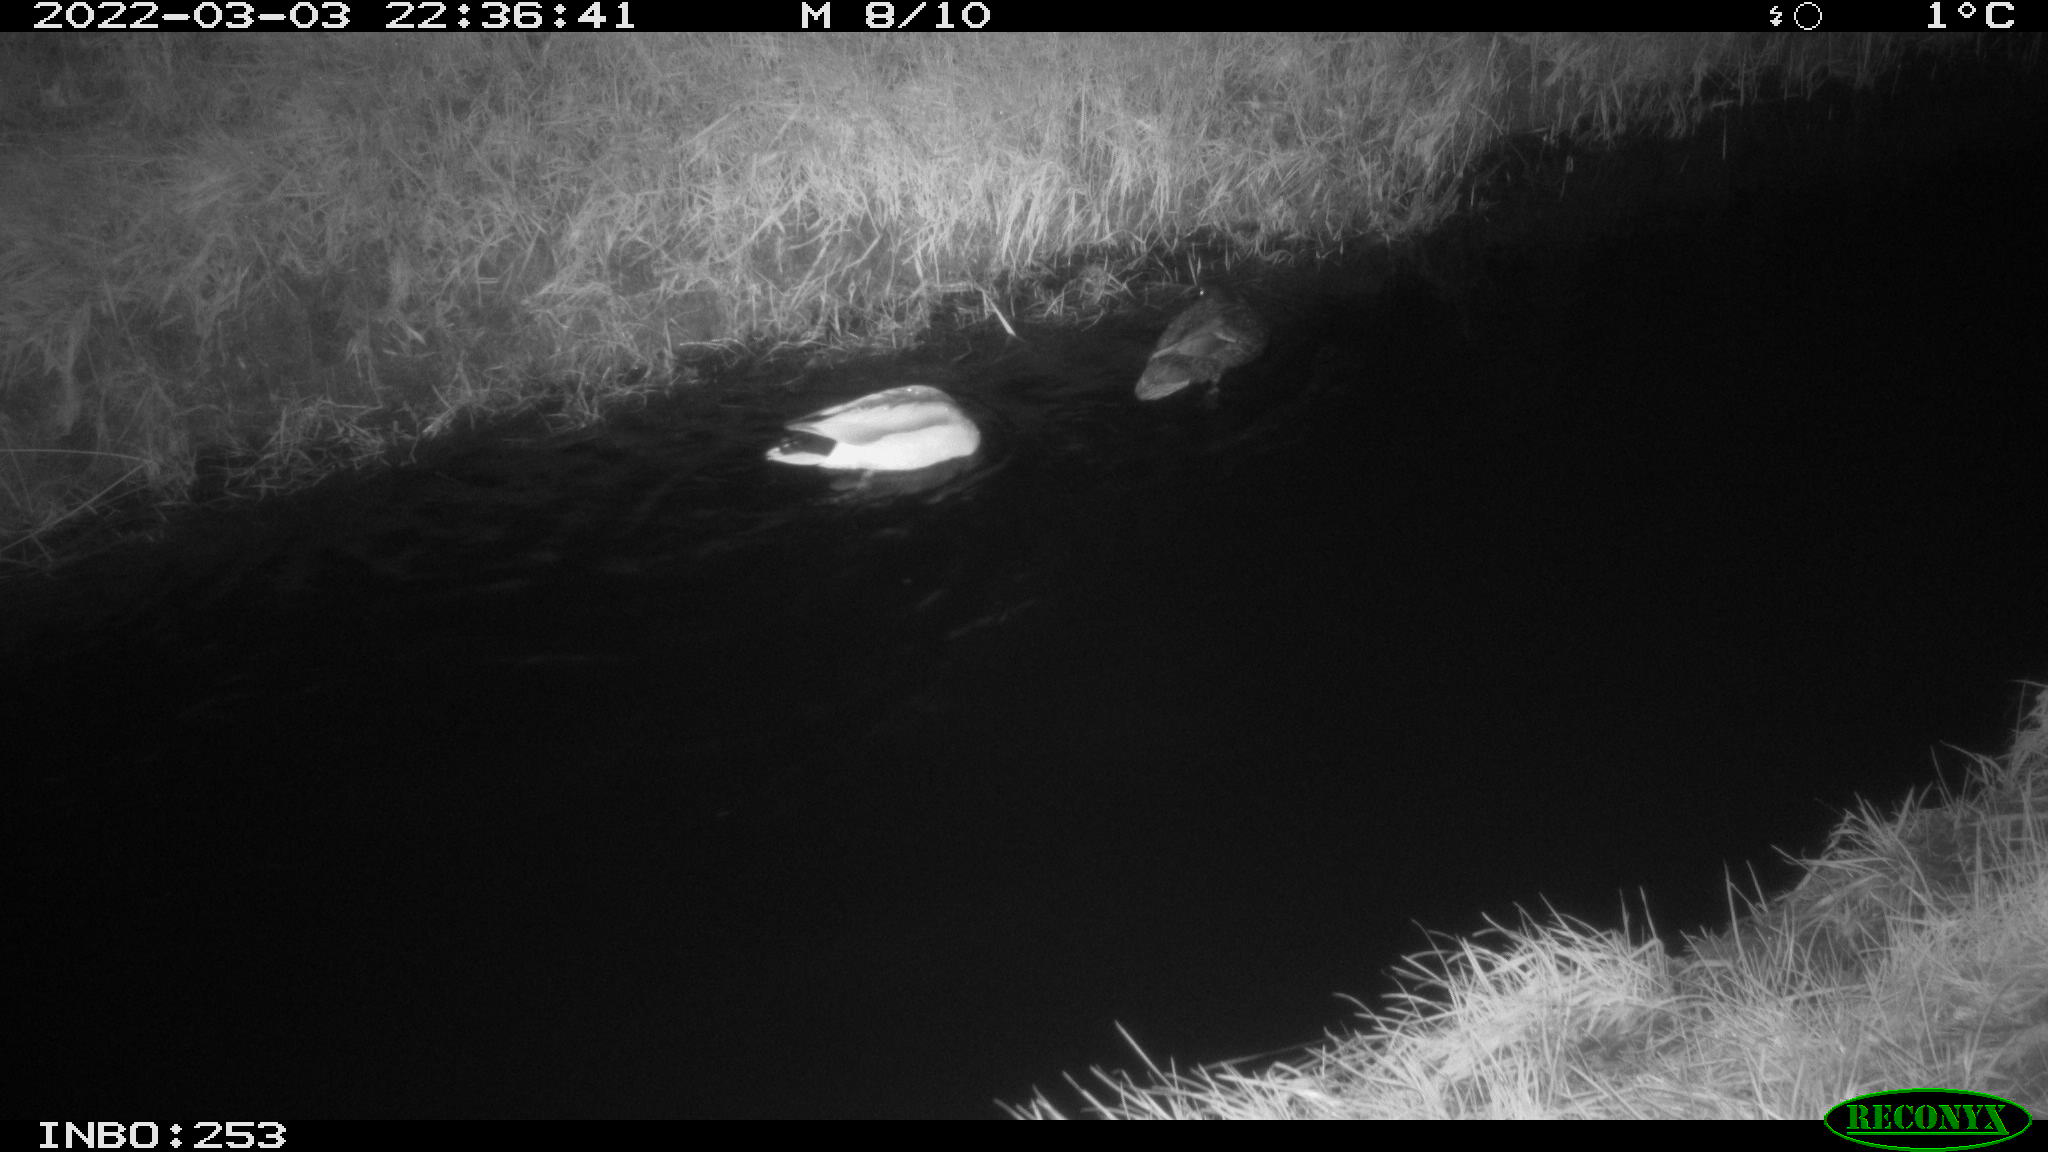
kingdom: Animalia
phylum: Chordata
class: Aves
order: Anseriformes
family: Anatidae
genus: Anas
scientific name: Anas platyrhynchos
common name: Mallard
